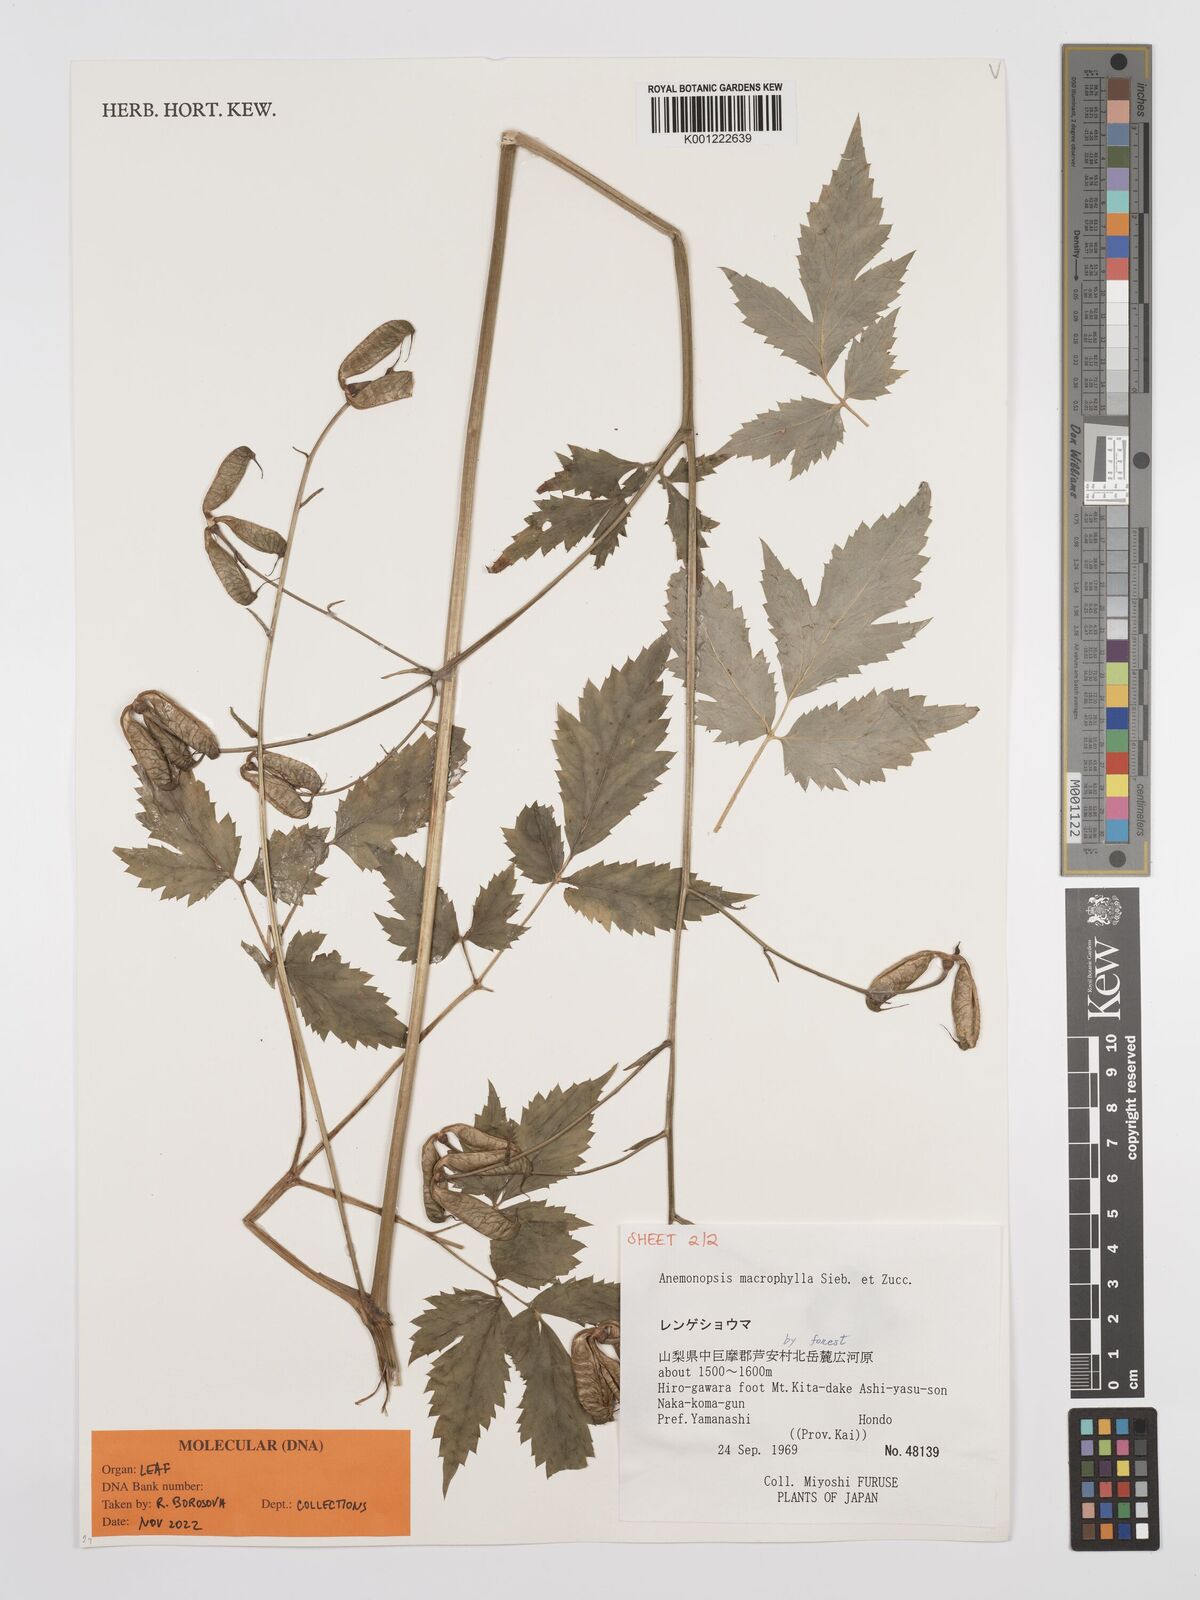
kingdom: Plantae
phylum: Tracheophyta
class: Magnoliopsida
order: Ranunculales
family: Ranunculaceae
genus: Anemonopsis
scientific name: Anemonopsis macrophylla
